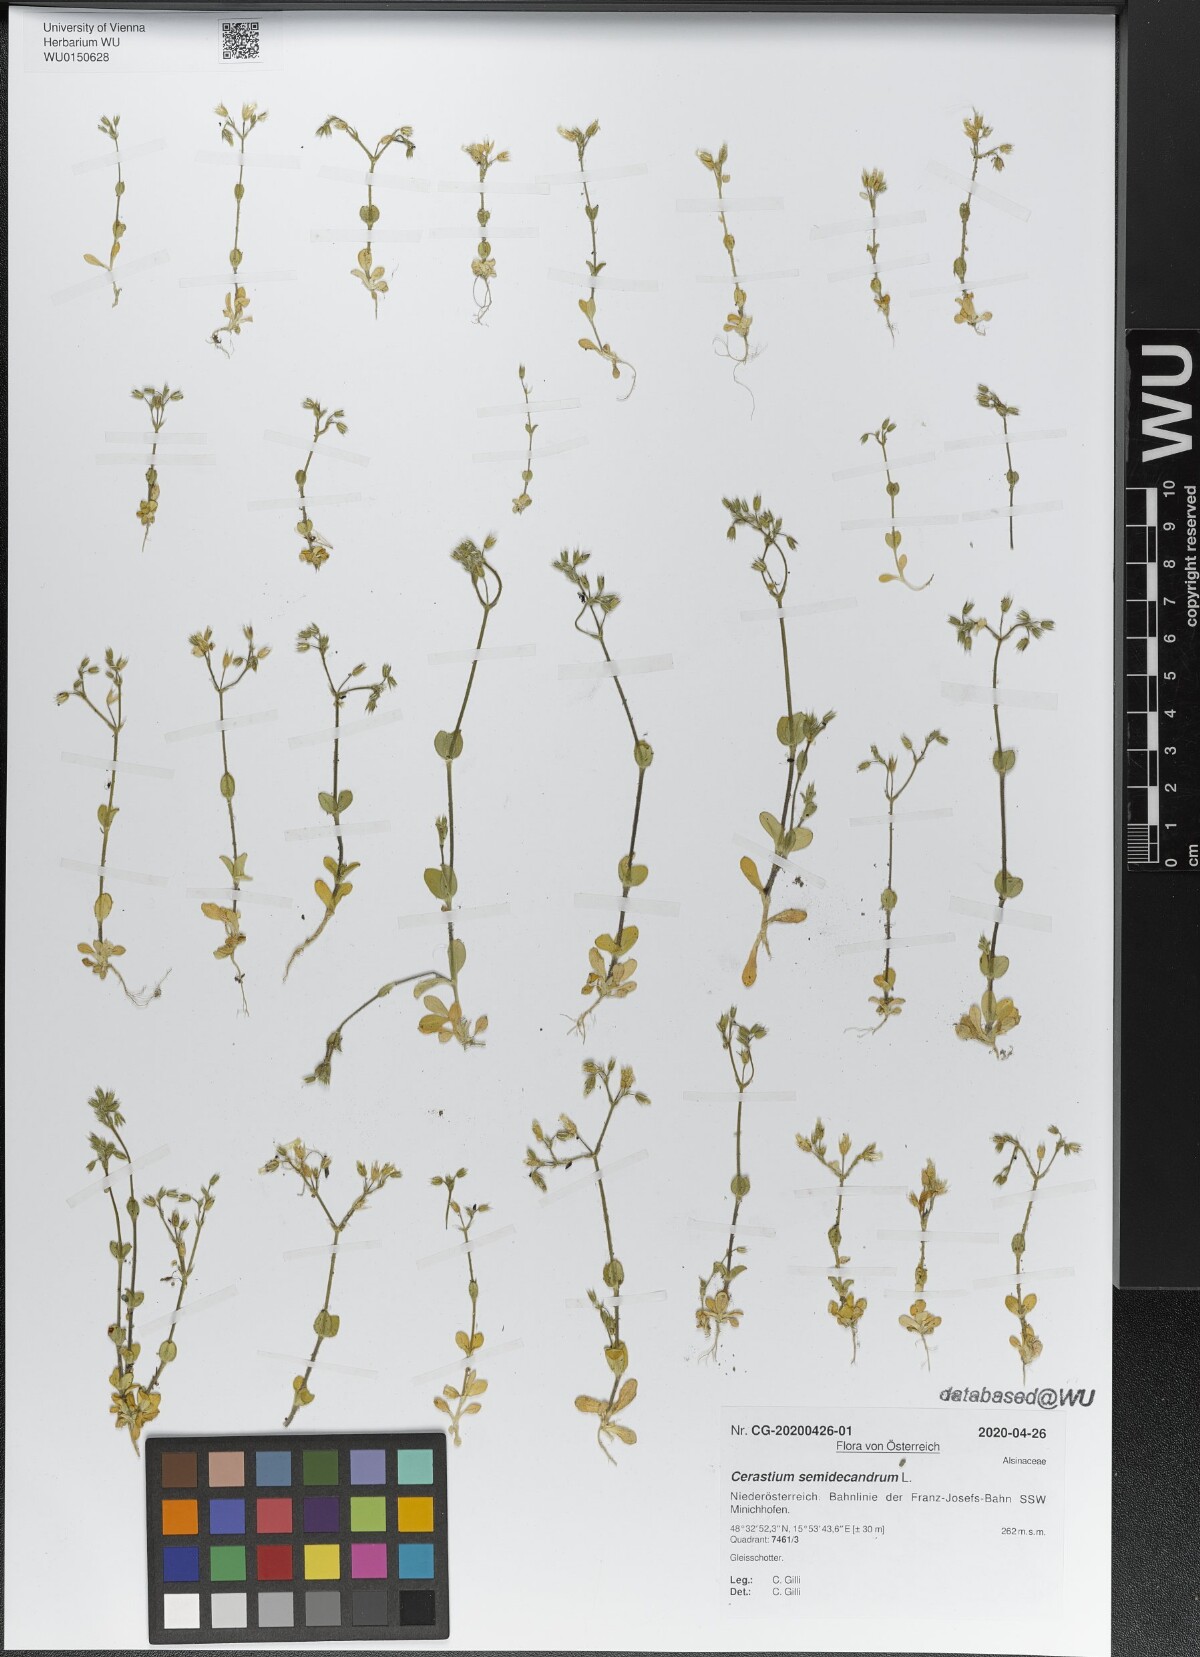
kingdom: Plantae
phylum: Tracheophyta
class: Magnoliopsida
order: Caryophyllales
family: Caryophyllaceae
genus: Cerastium
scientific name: Cerastium semidecandrum
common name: Little mouse-ear
